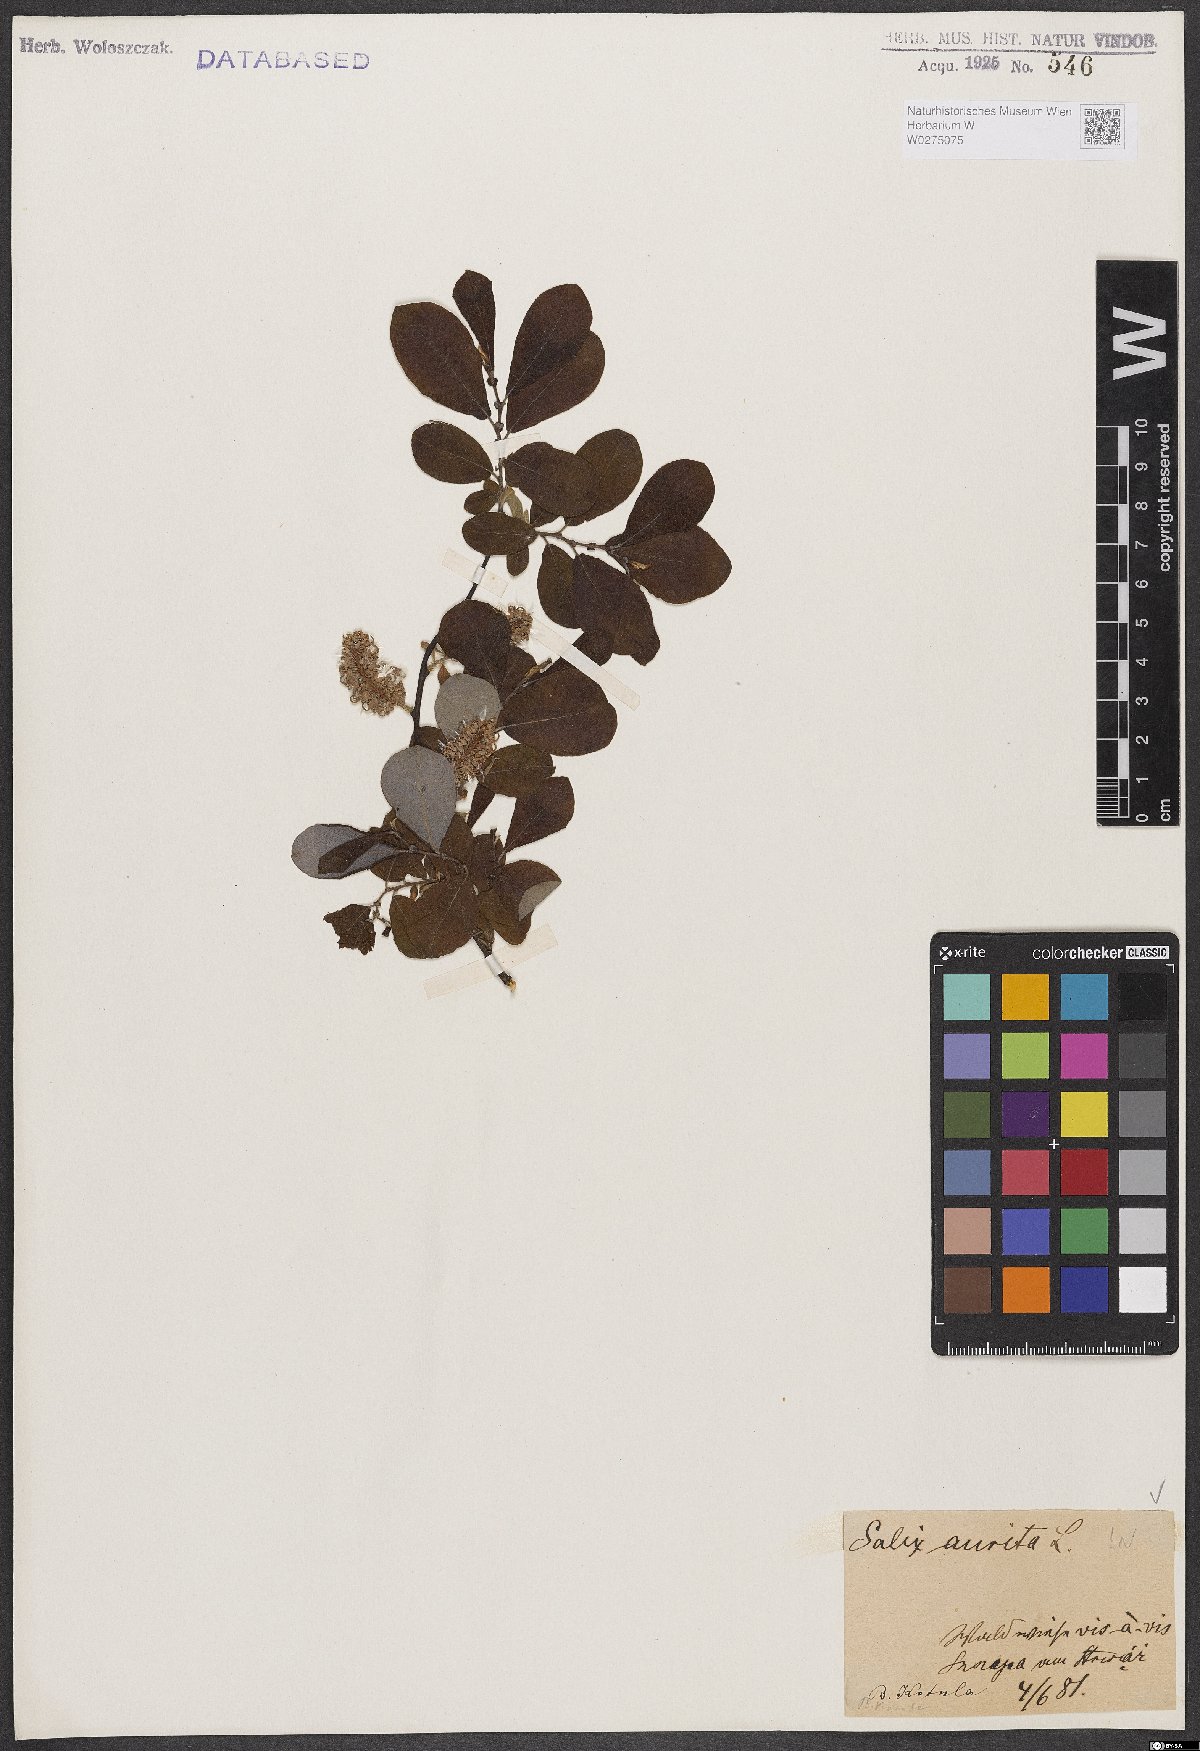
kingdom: Plantae
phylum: Tracheophyta
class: Magnoliopsida
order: Malpighiales
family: Salicaceae
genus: Salix
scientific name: Salix aurita
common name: Eared willow
